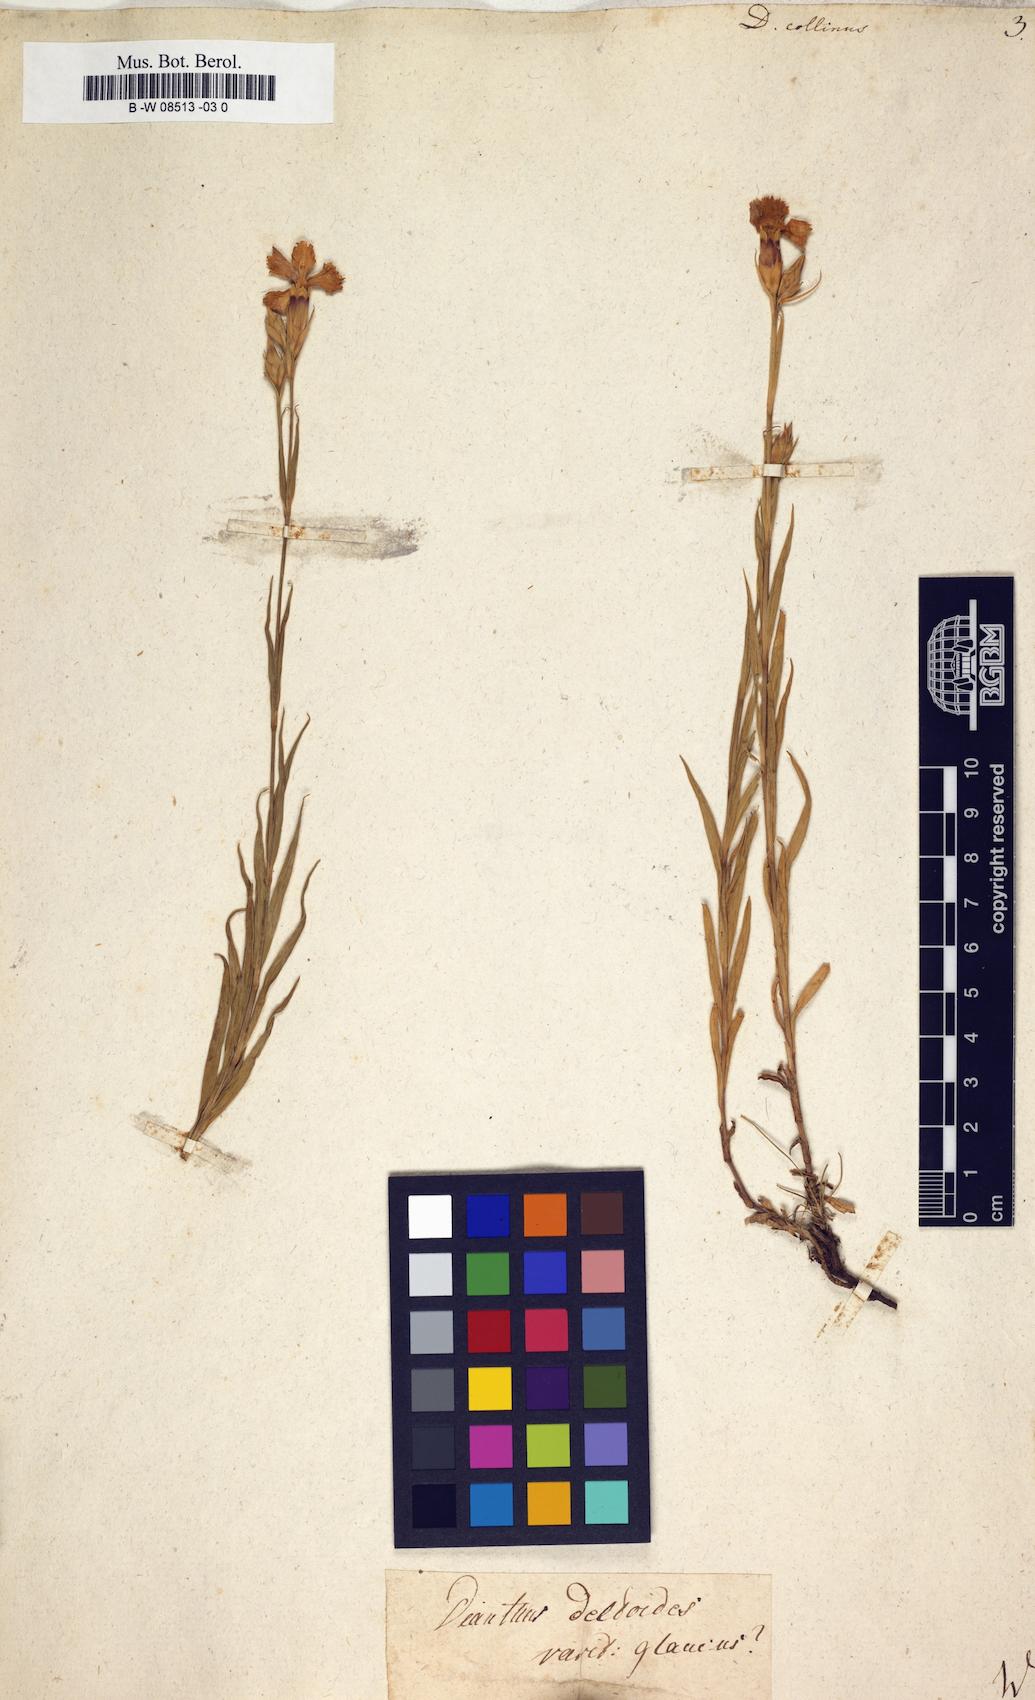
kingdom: Plantae
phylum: Tracheophyta
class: Magnoliopsida
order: Caryophyllales
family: Caryophyllaceae
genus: Dianthus
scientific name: Dianthus collinus
